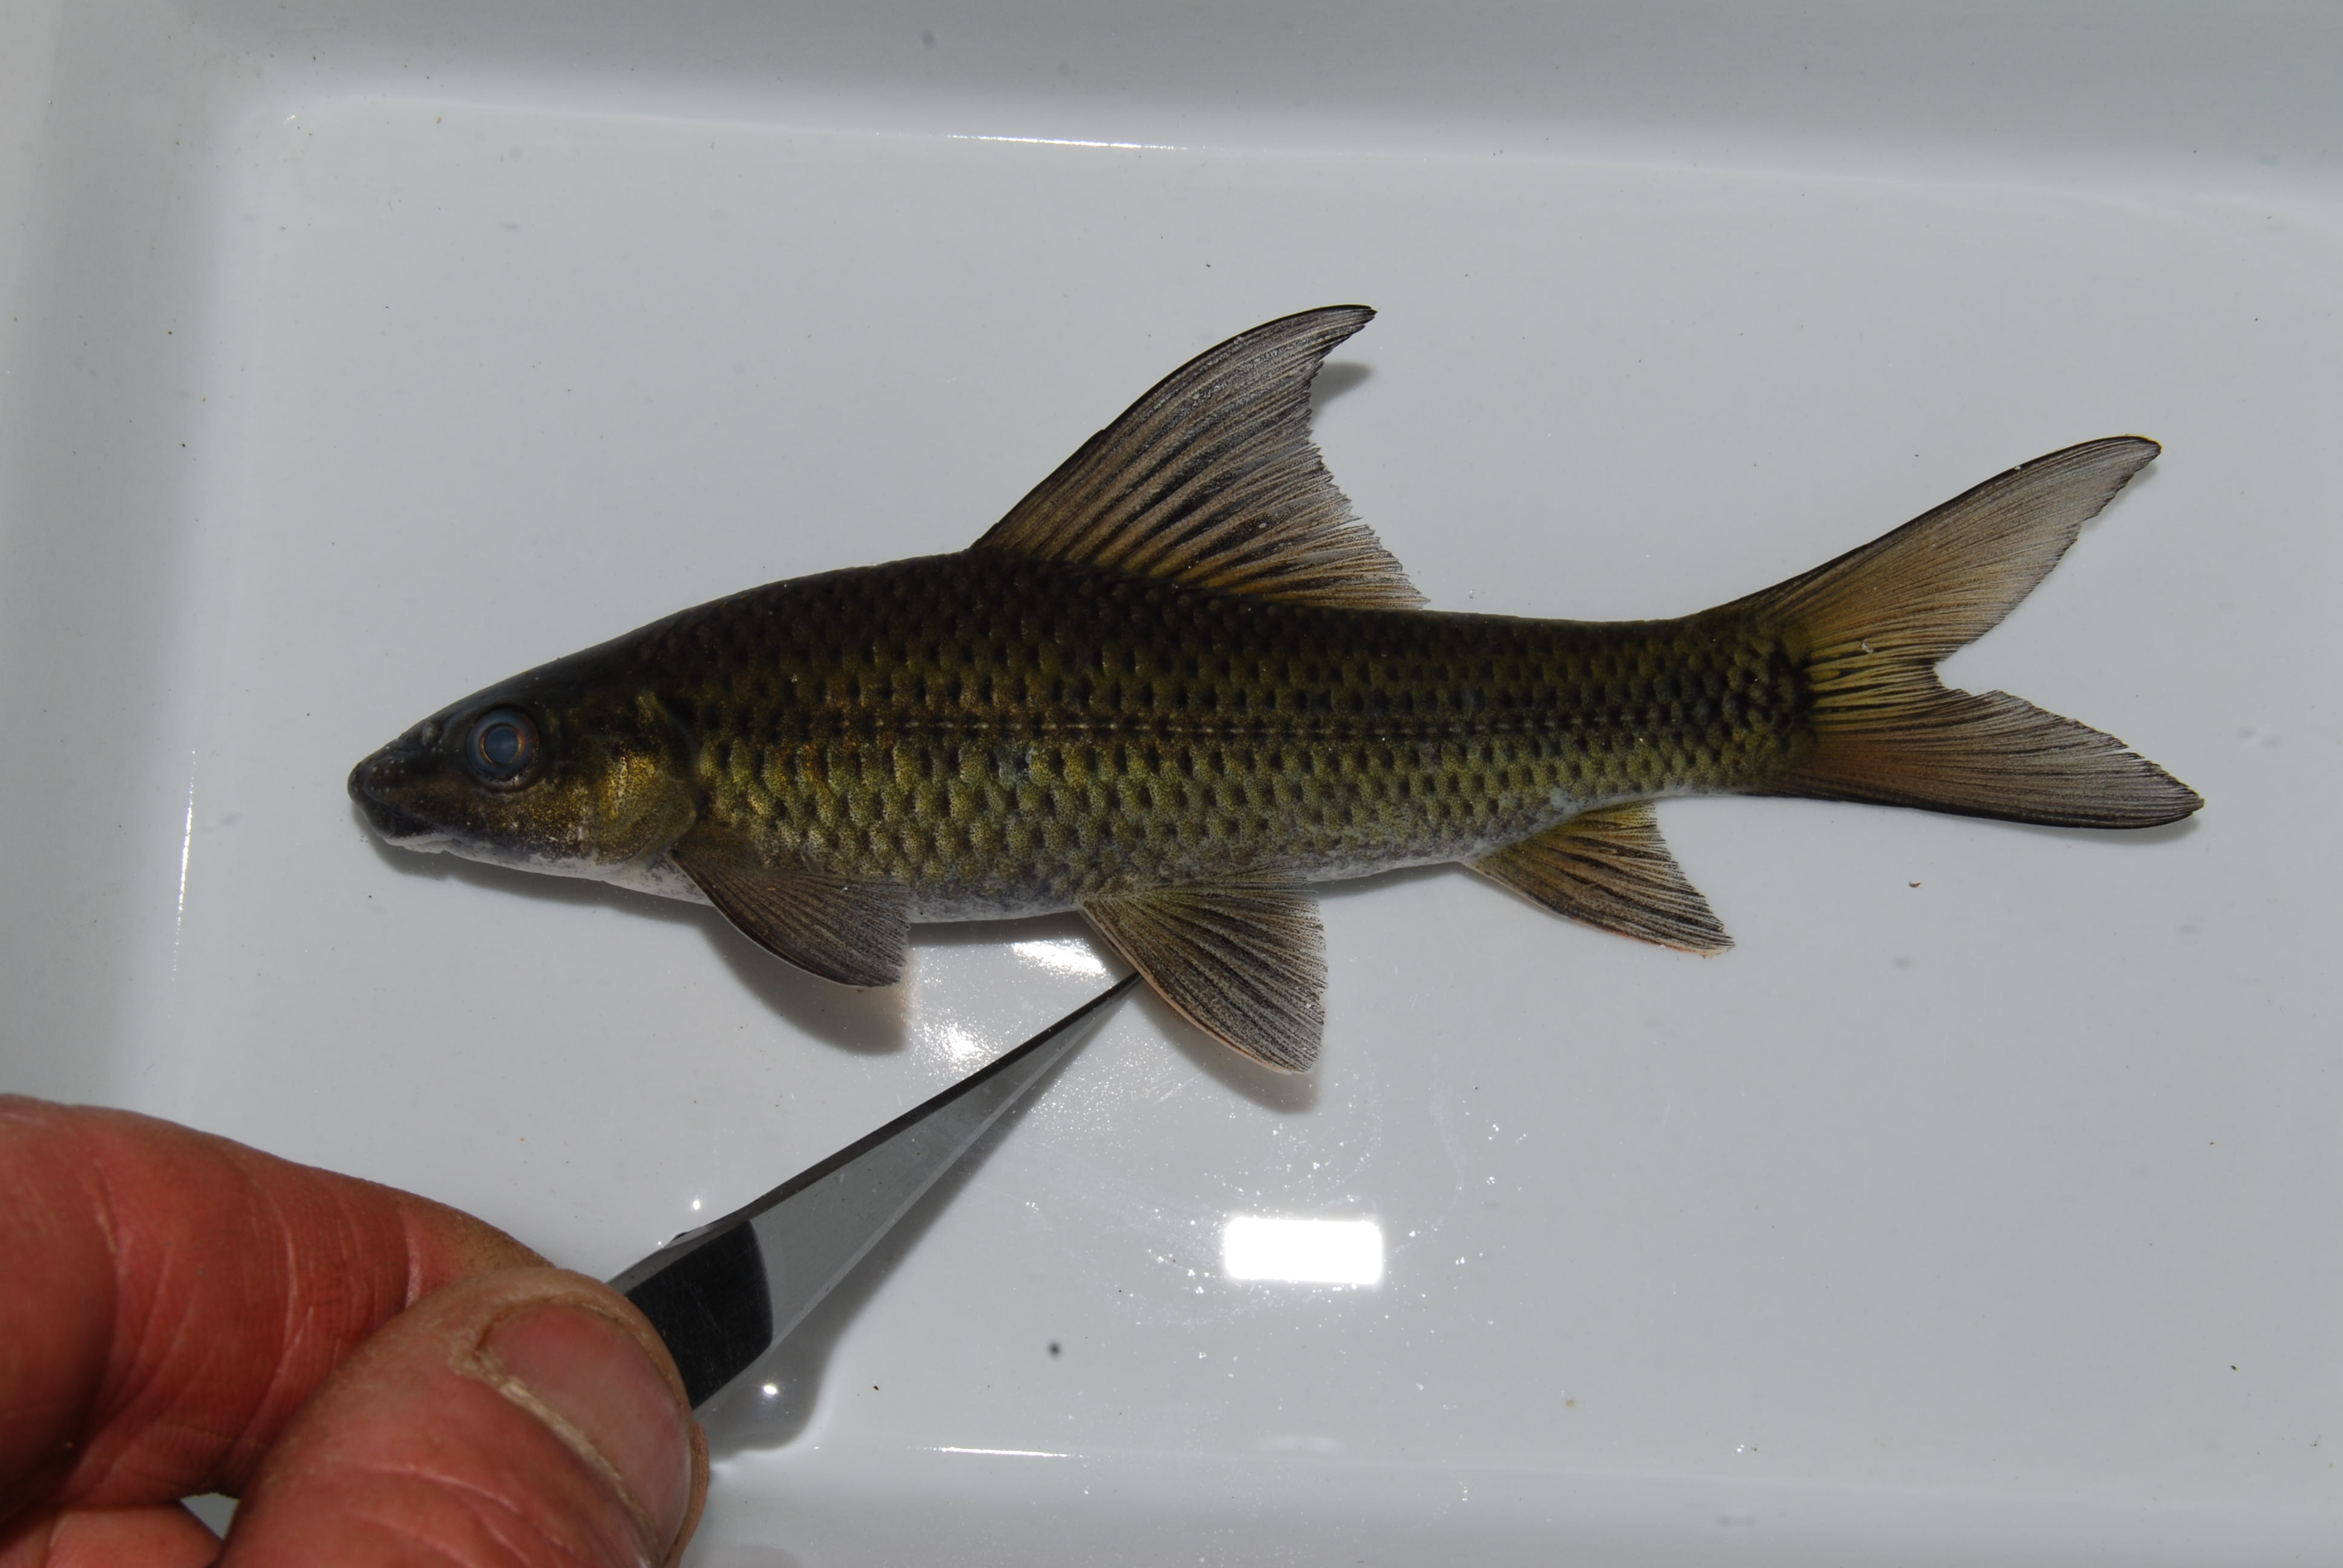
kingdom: Animalia
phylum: Chordata
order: Cypriniformes
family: Cyprinidae
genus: Labeo
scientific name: Labeo lunatus
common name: Upper zambezi labeo
